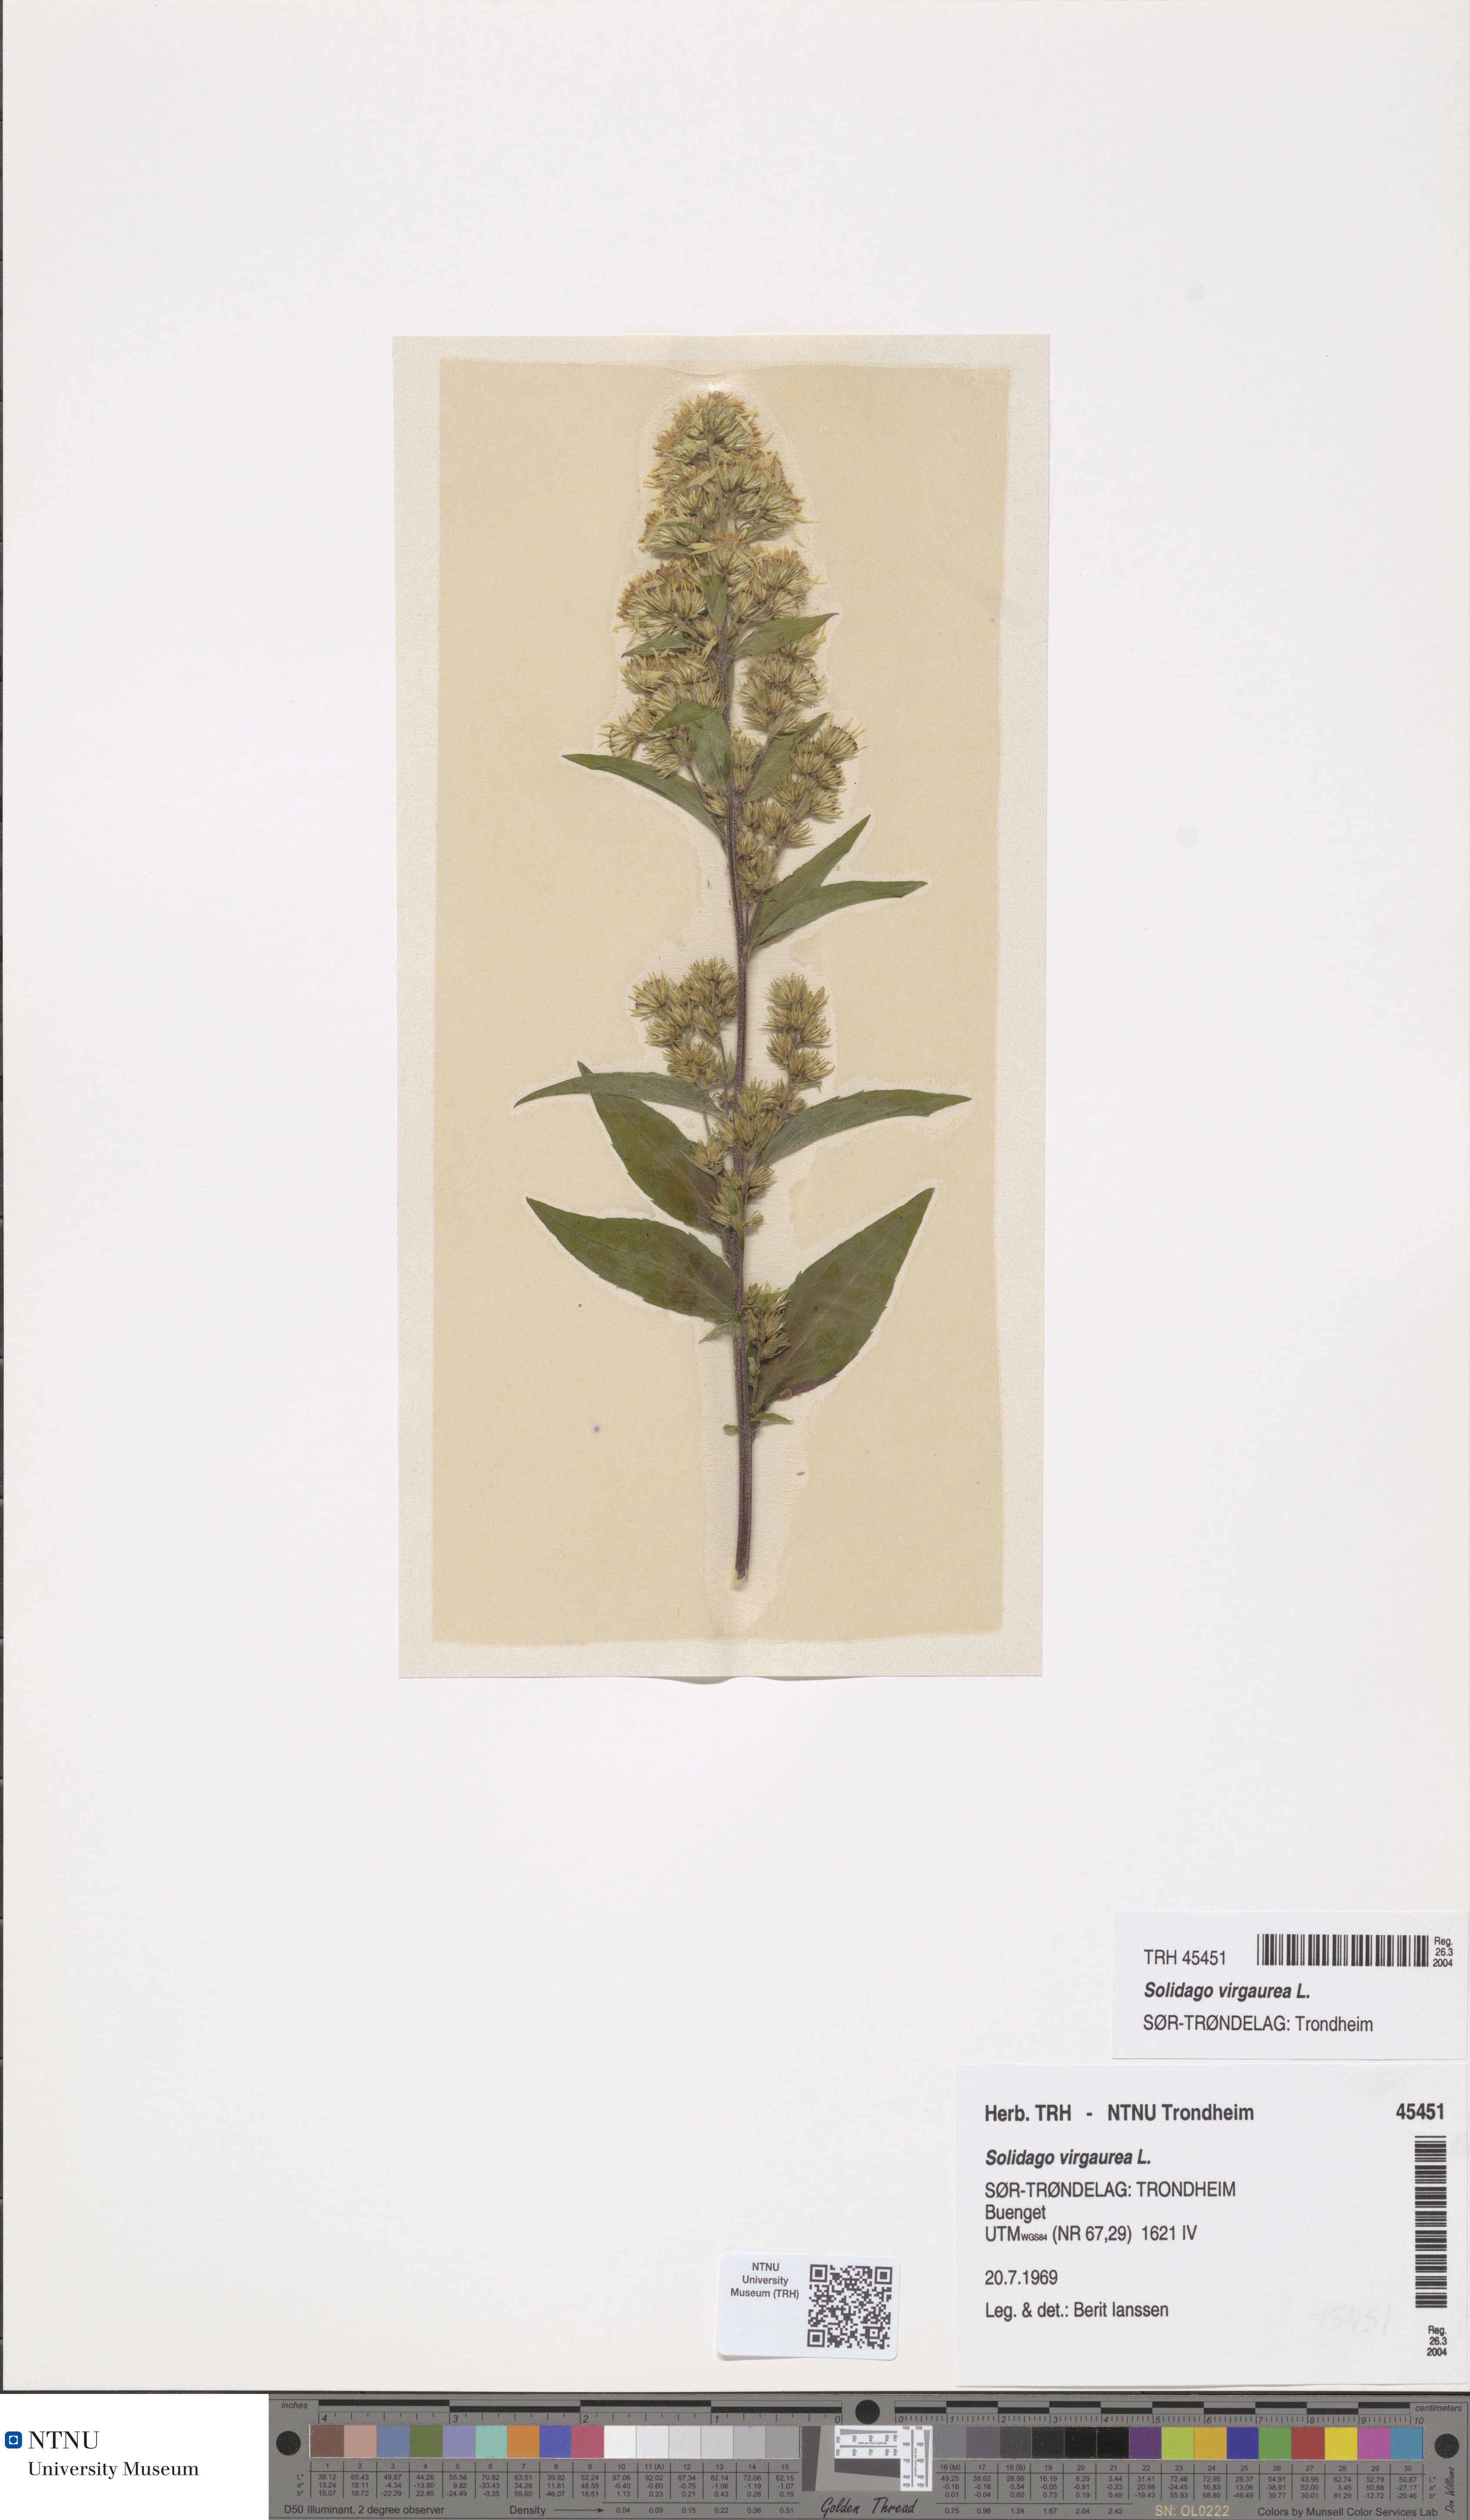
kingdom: Plantae
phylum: Tracheophyta
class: Magnoliopsida
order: Asterales
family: Asteraceae
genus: Solidago
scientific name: Solidago virgaurea
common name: Goldenrod
